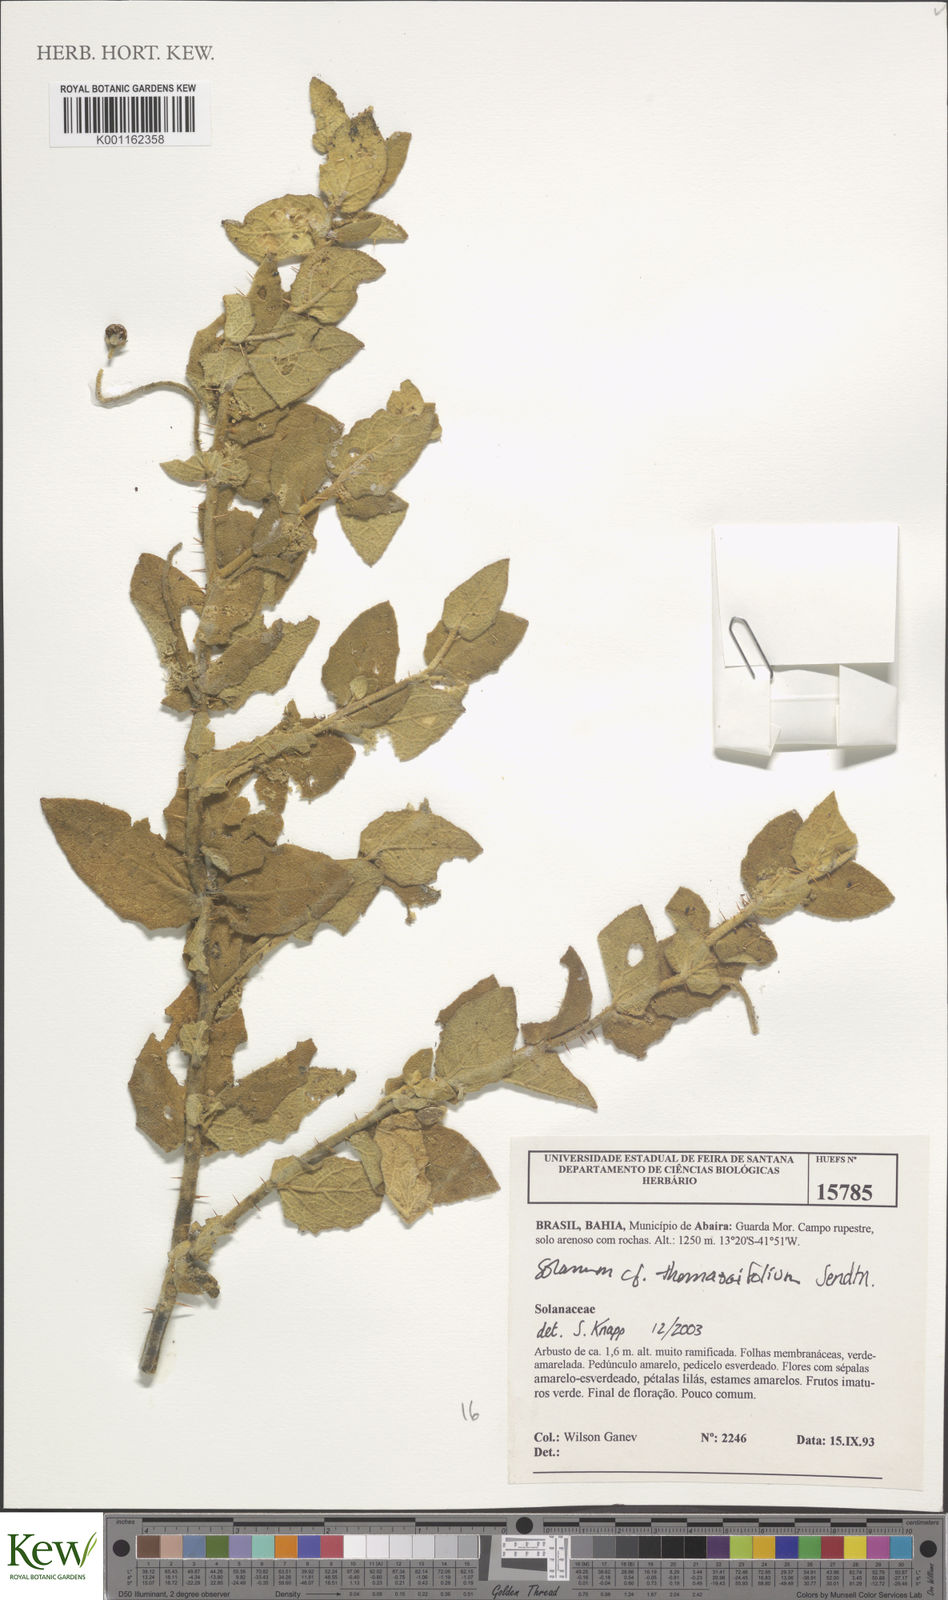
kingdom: Plantae
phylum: Tracheophyta
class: Magnoliopsida
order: Solanales
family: Solanaceae
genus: Solanum
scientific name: Solanum thomasiifolium
